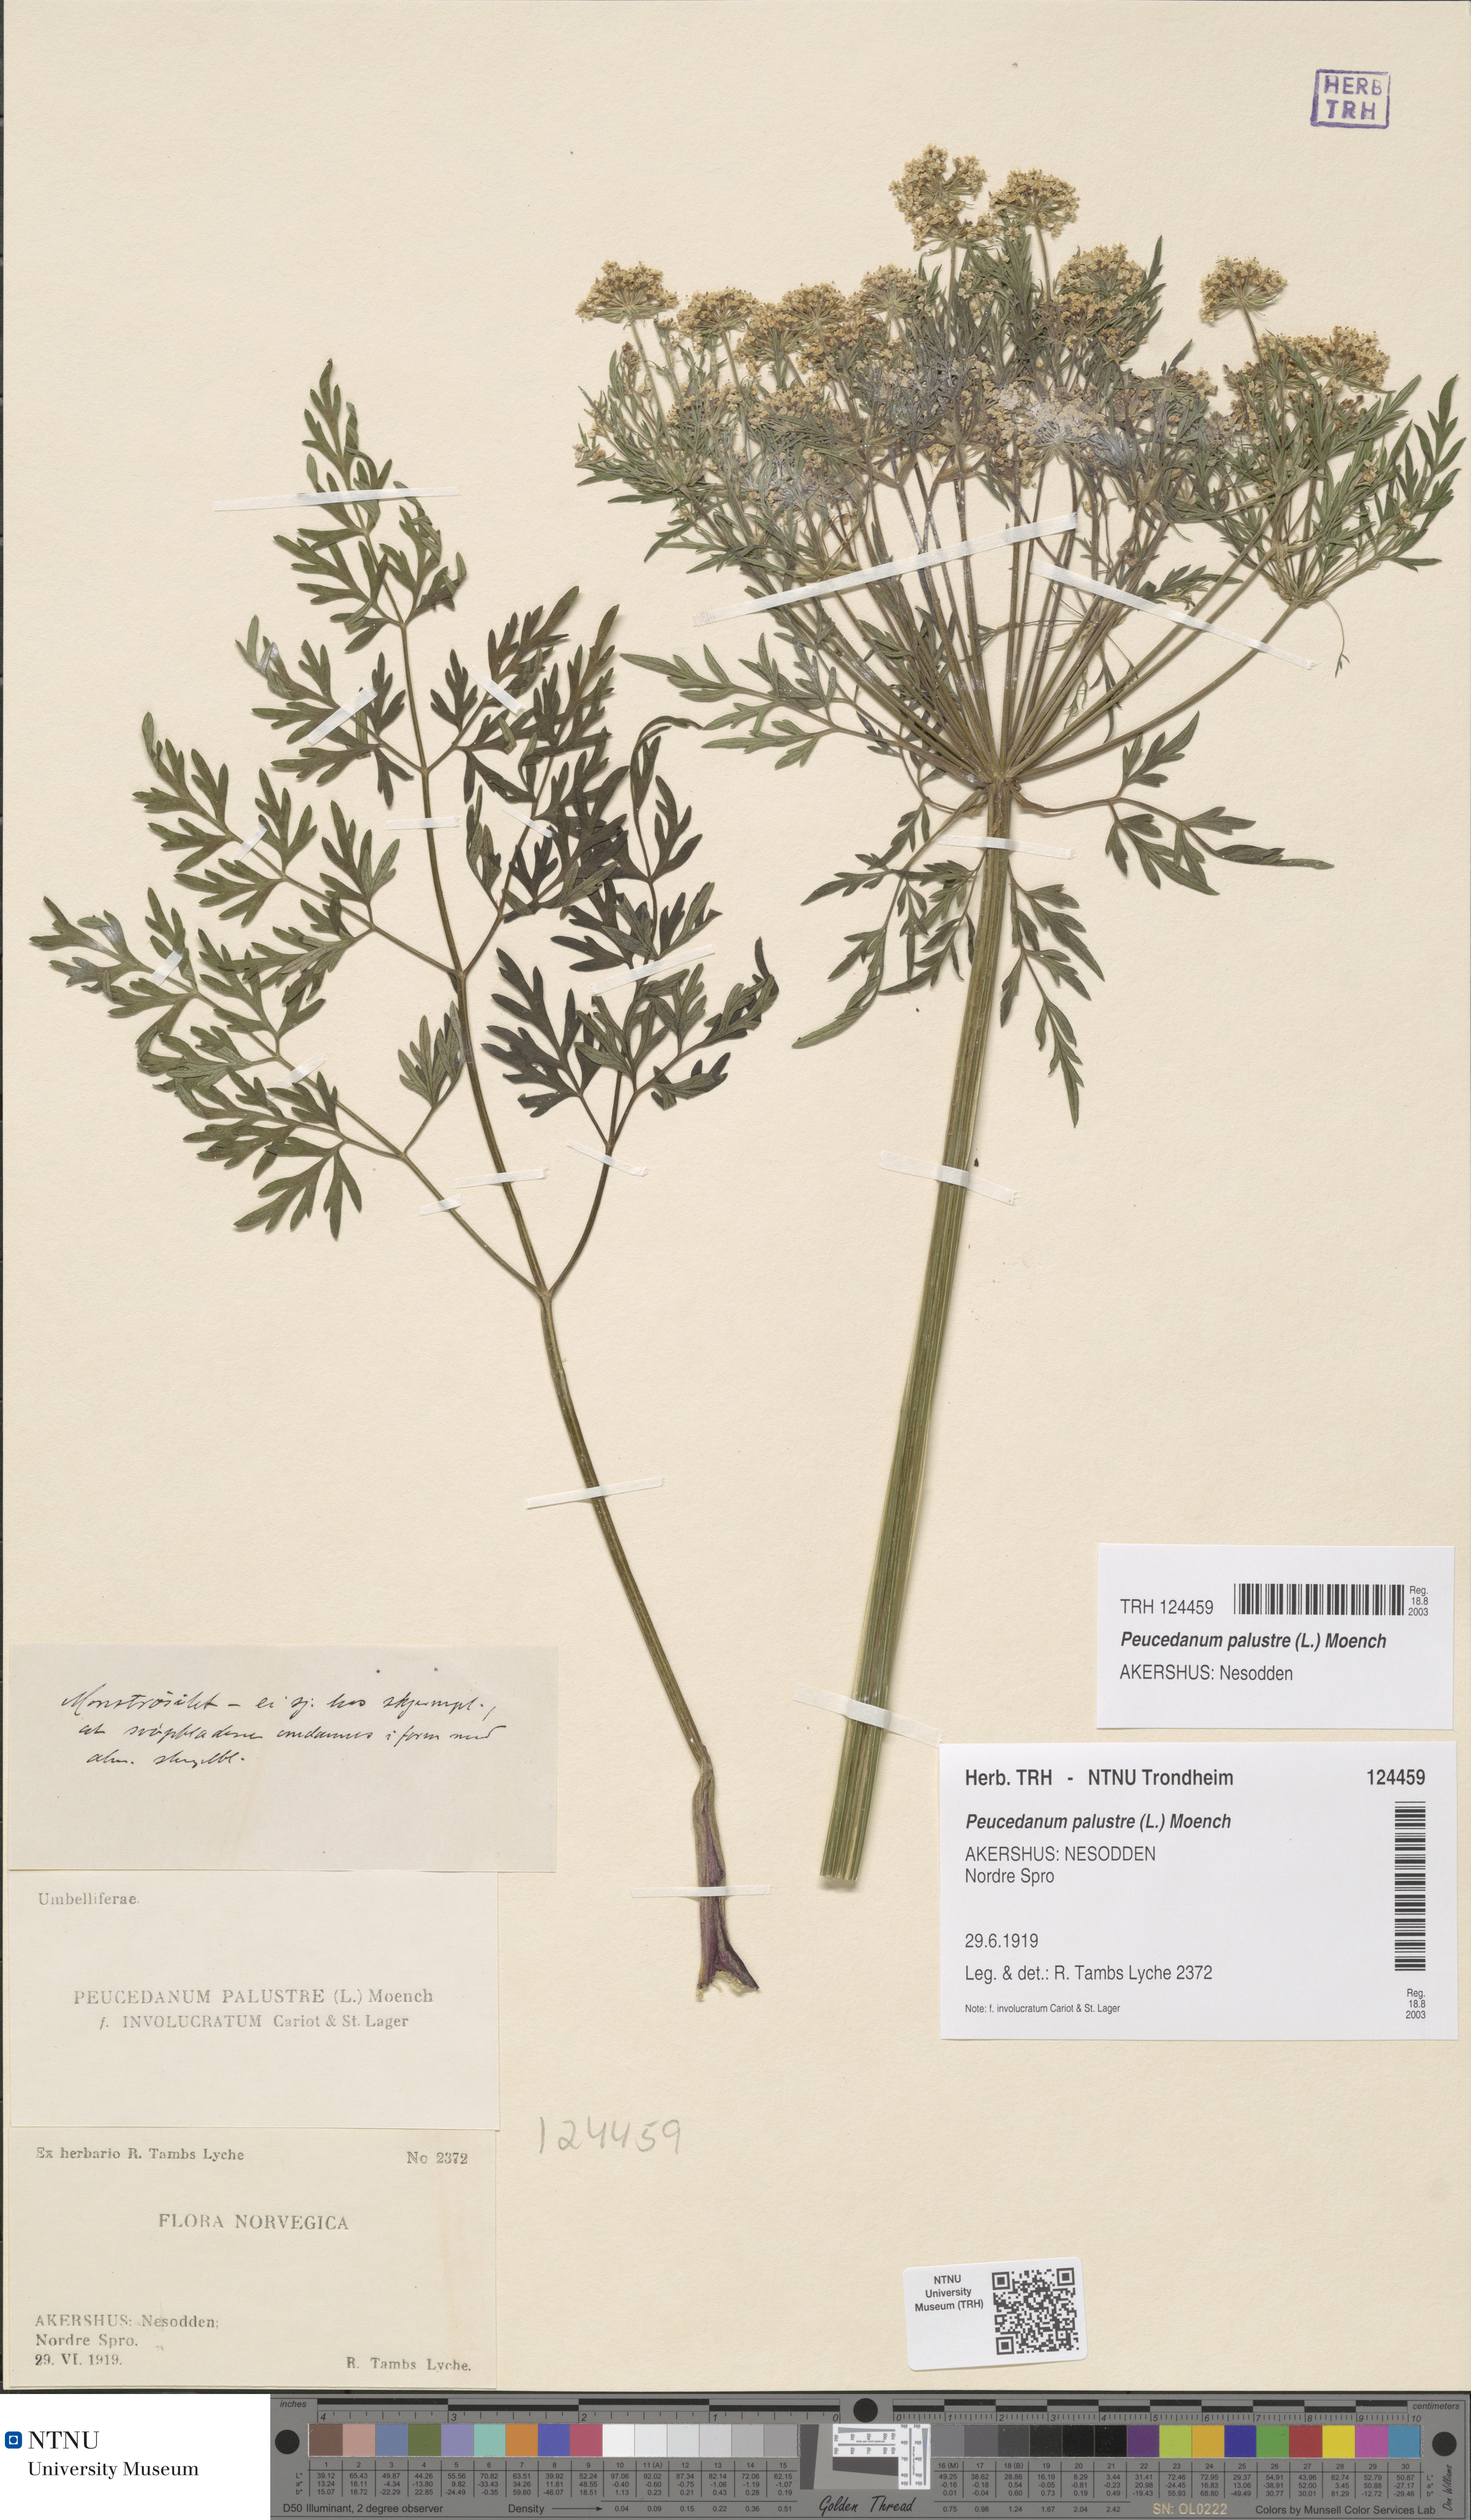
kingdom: Plantae
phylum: Tracheophyta
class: Magnoliopsida
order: Apiales
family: Apiaceae
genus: Thysselinum
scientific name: Thysselinum palustre
